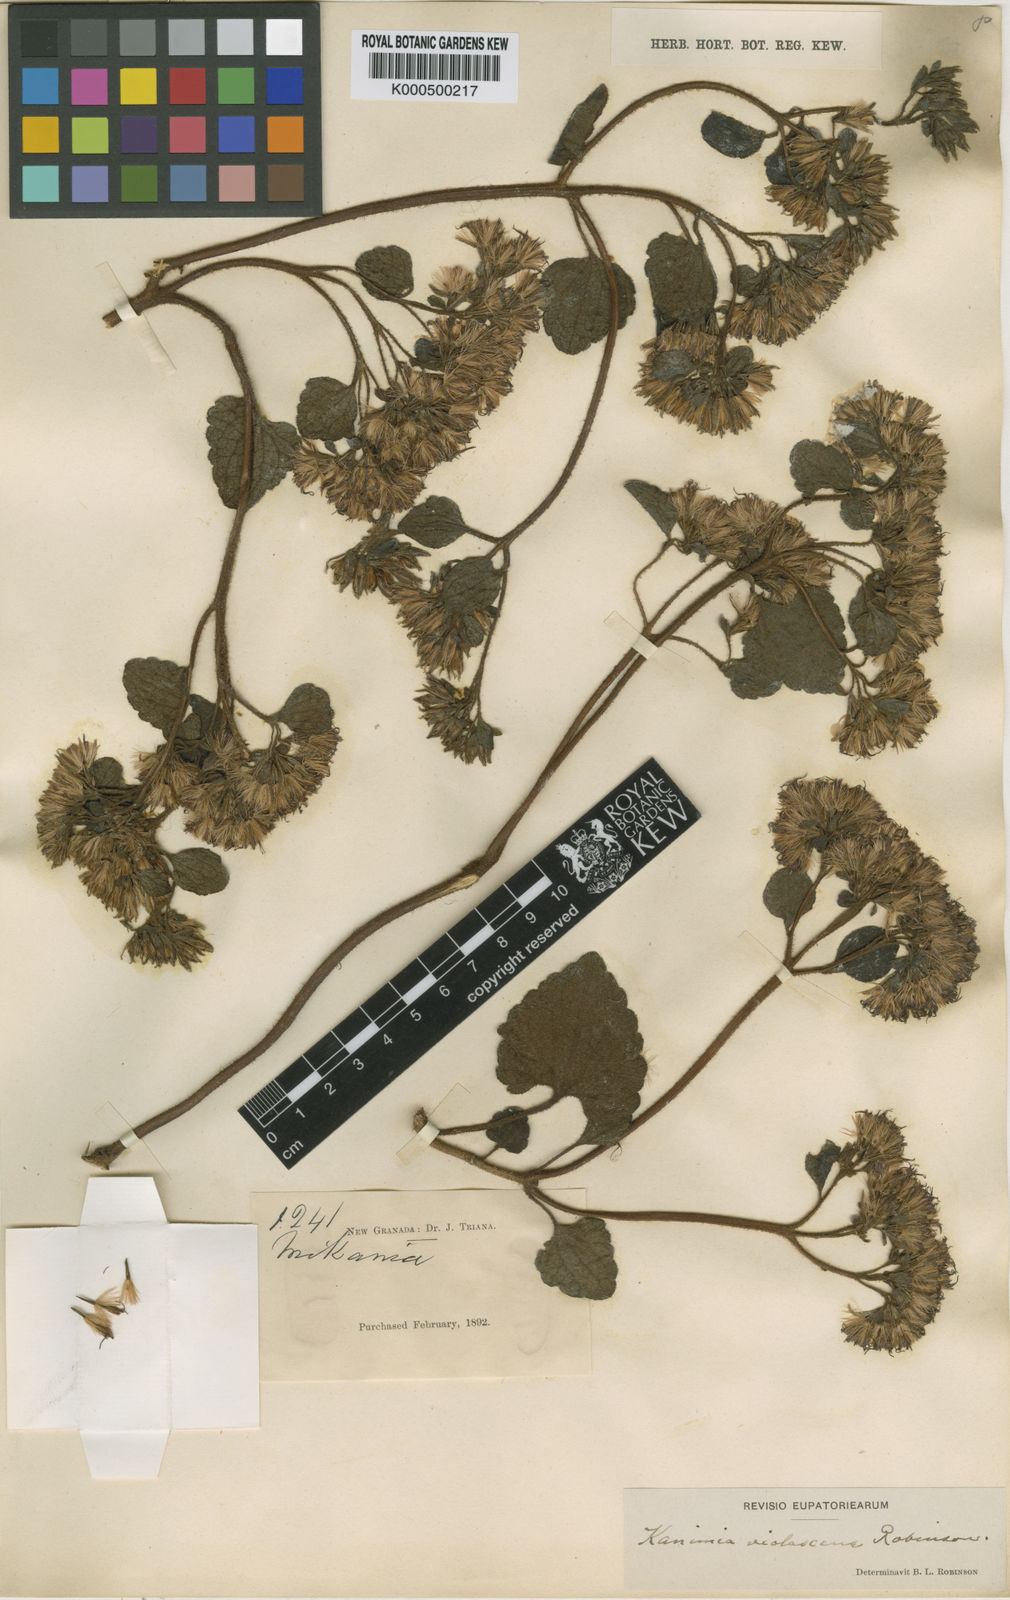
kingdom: Plantae
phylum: Tracheophyta
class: Magnoliopsida
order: Asterales
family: Asteraceae
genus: Mikania
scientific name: Mikania violascens
